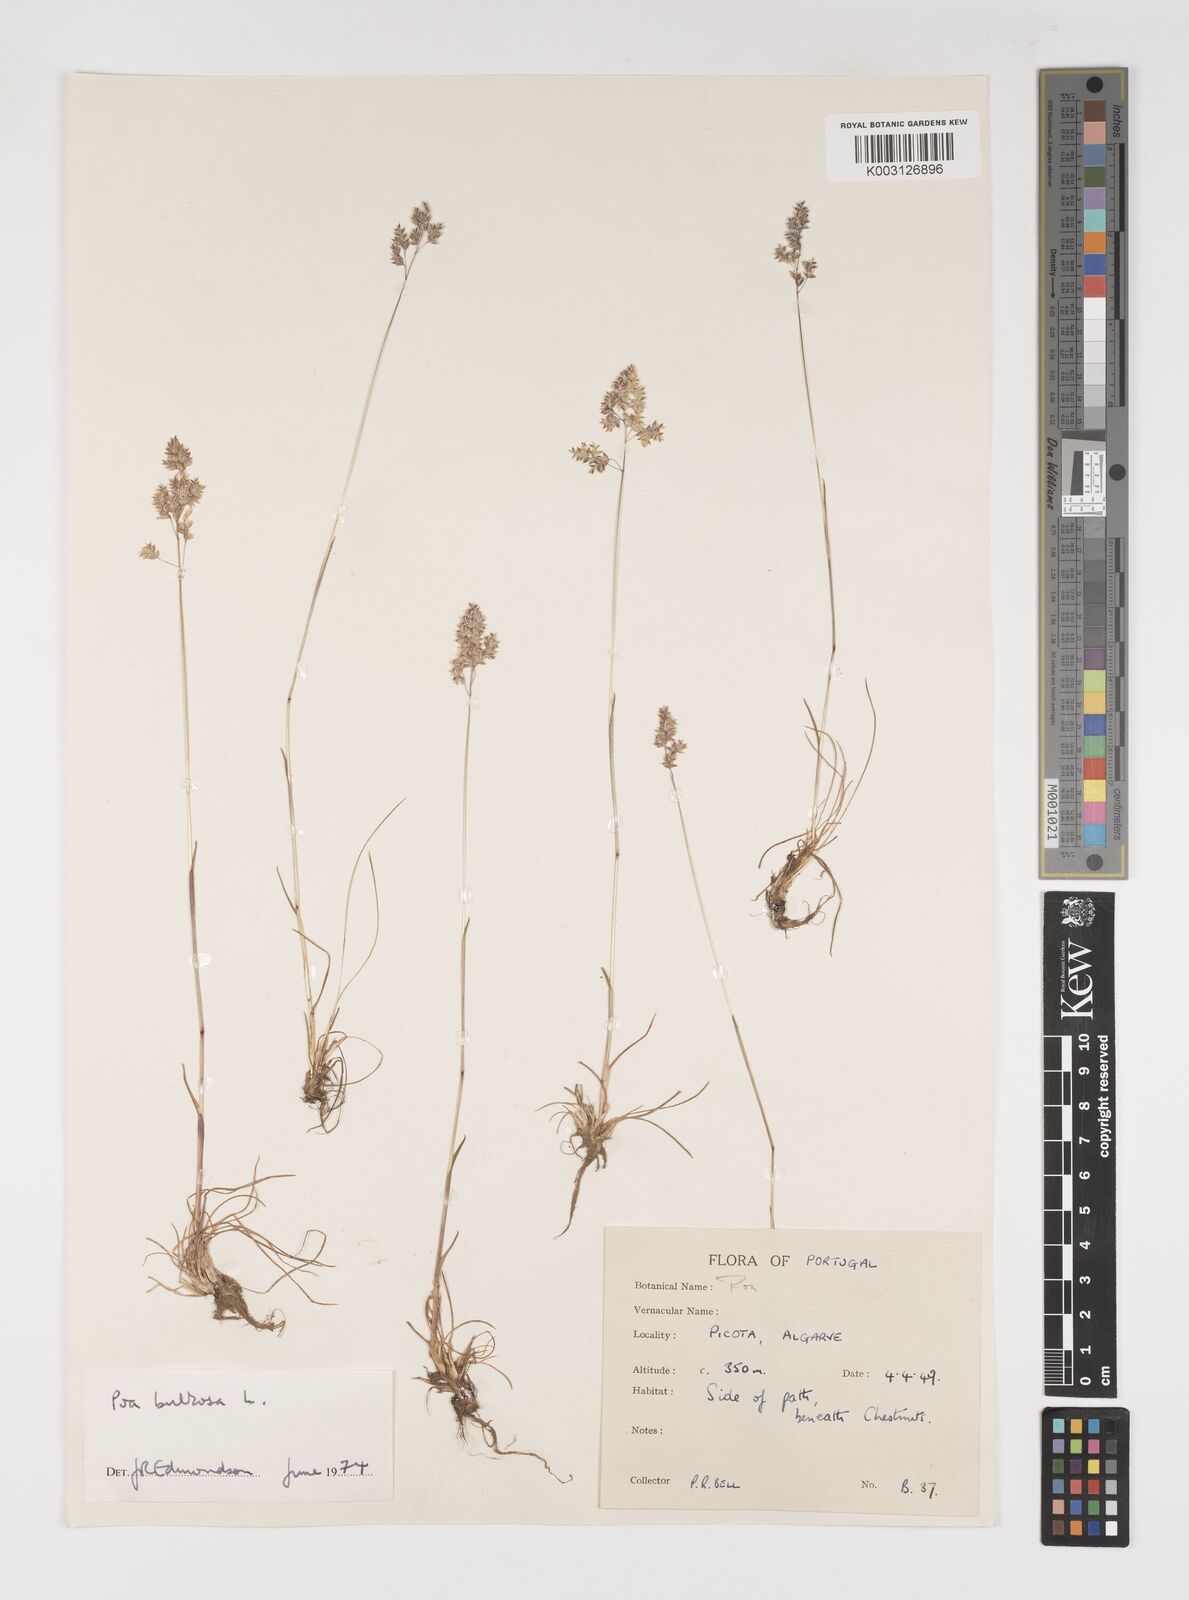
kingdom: Plantae
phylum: Tracheophyta
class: Liliopsida
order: Poales
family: Poaceae
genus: Poa
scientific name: Poa bulbosa
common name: Bulbous bluegrass
